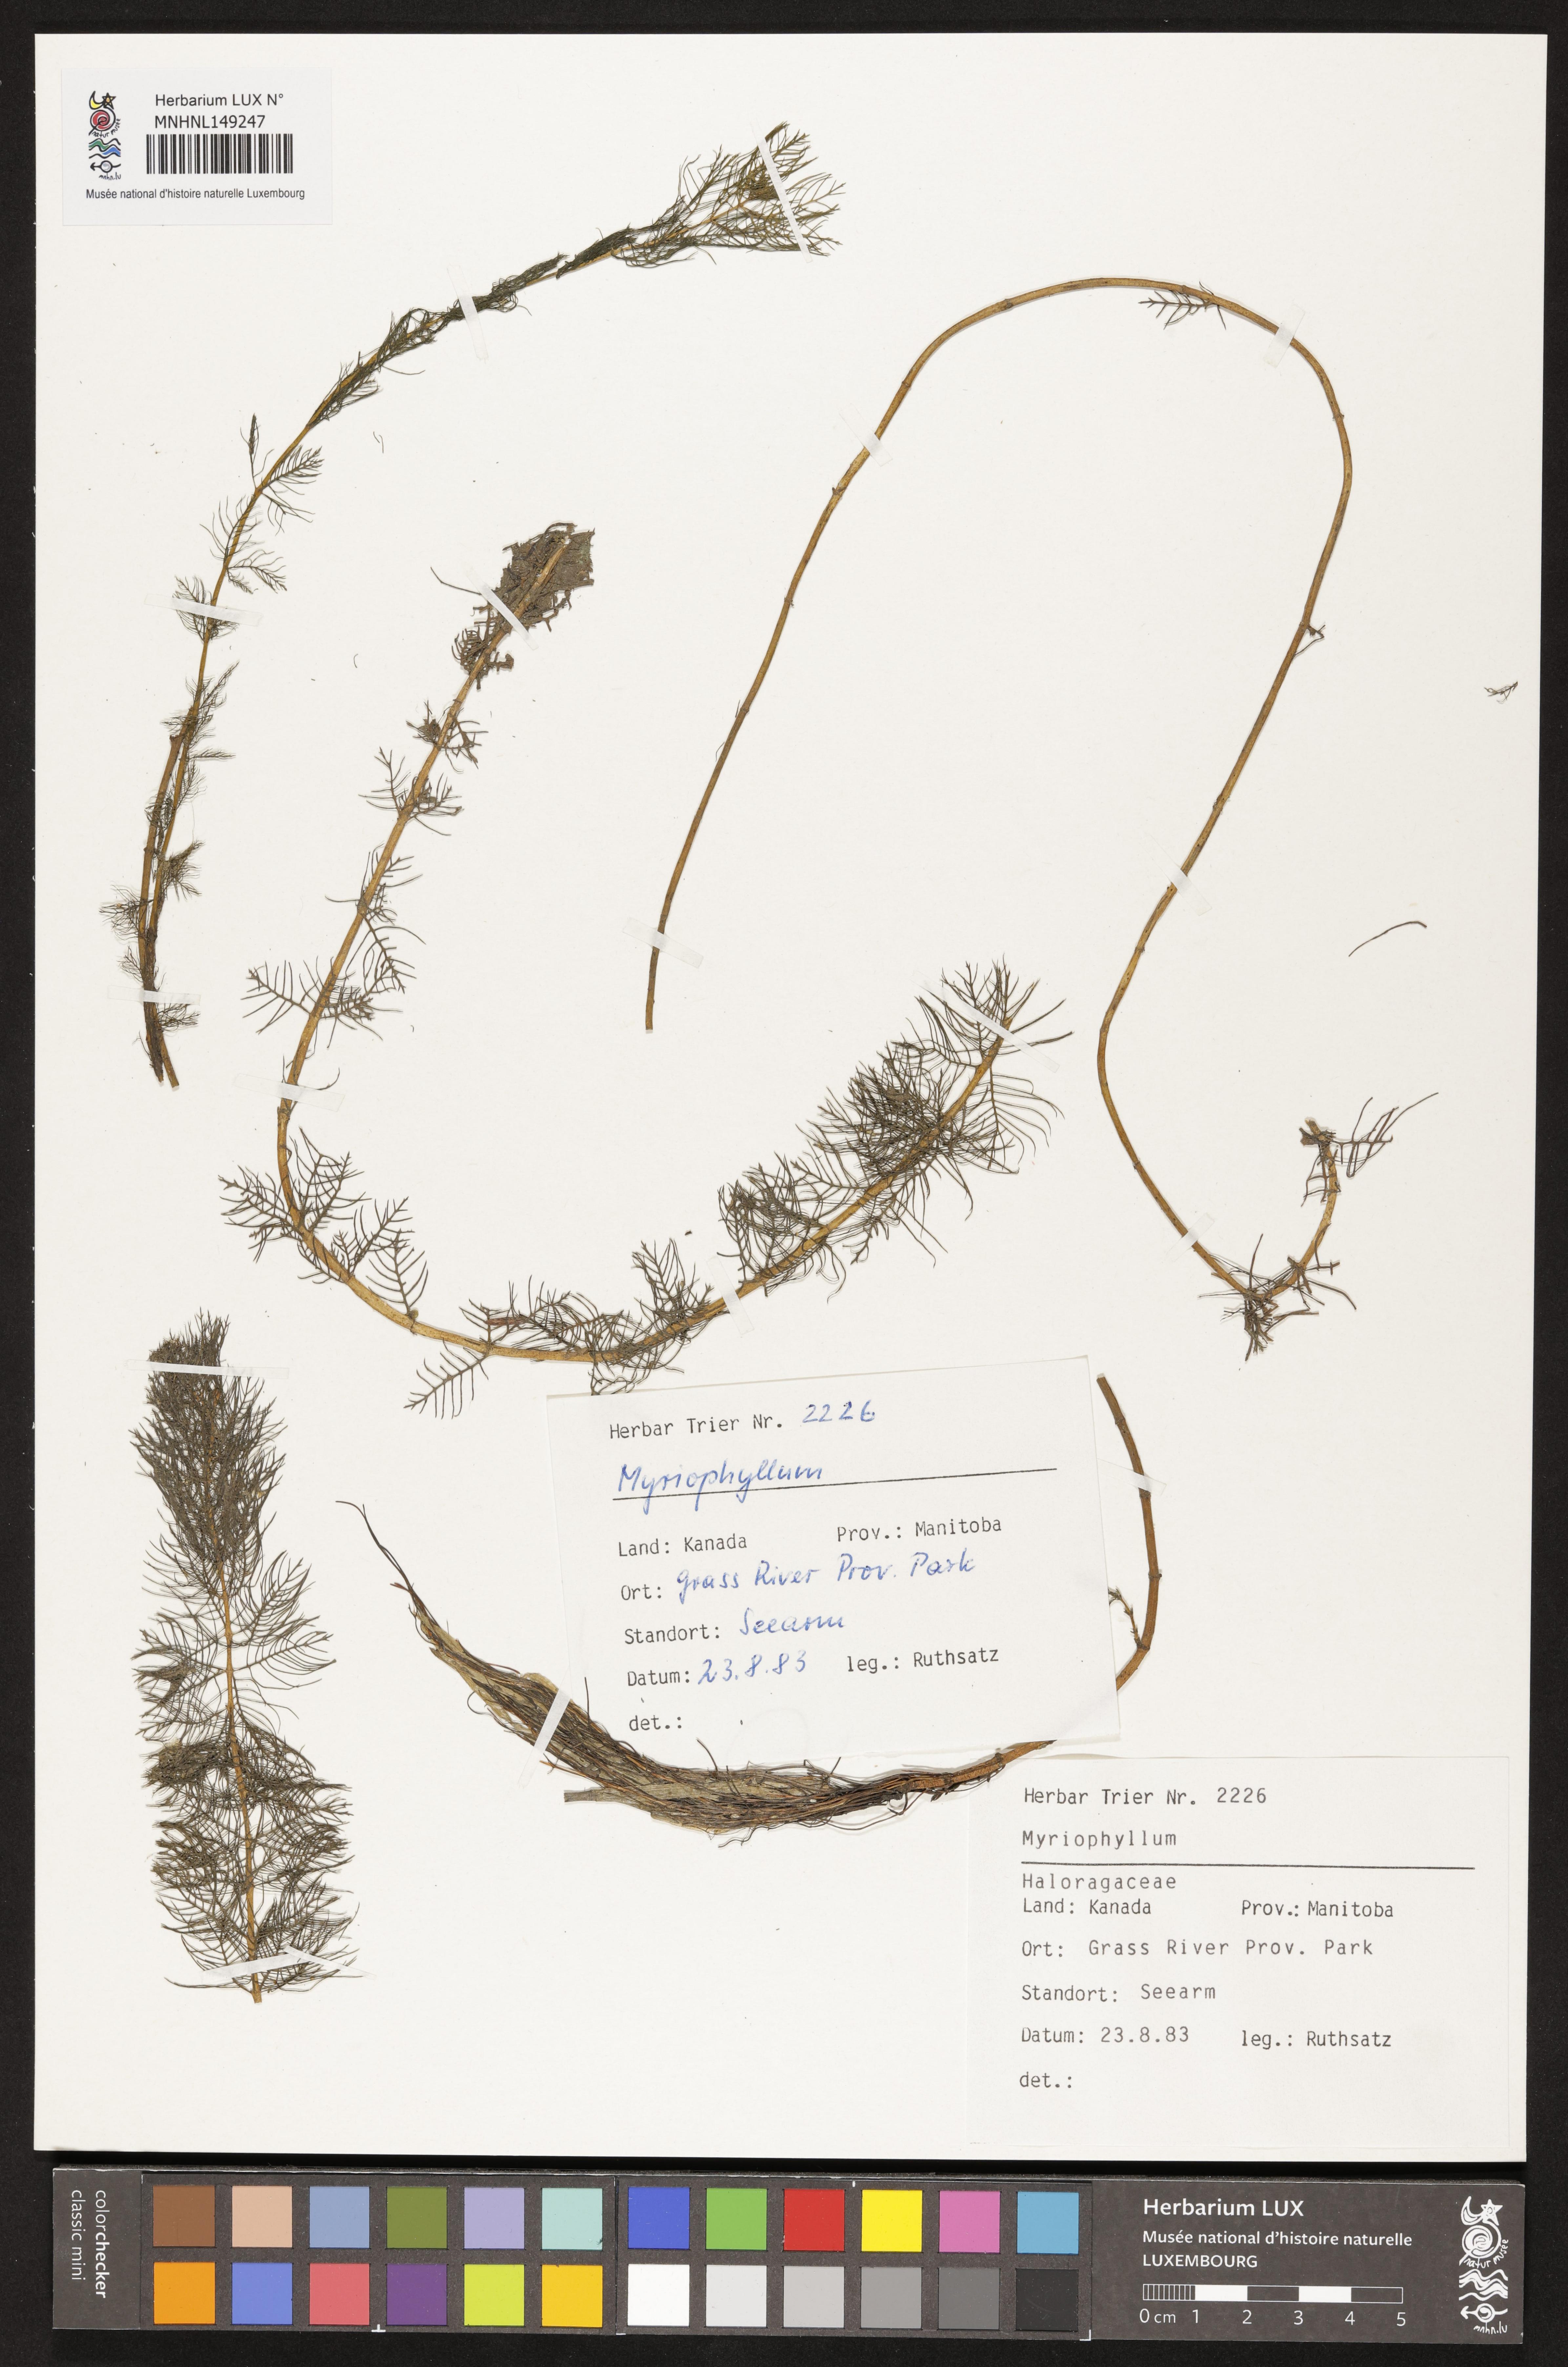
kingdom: Plantae
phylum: Tracheophyta
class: Magnoliopsida
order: Saxifragales
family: Haloragaceae
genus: Myriophyllum
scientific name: Myriophyllum
